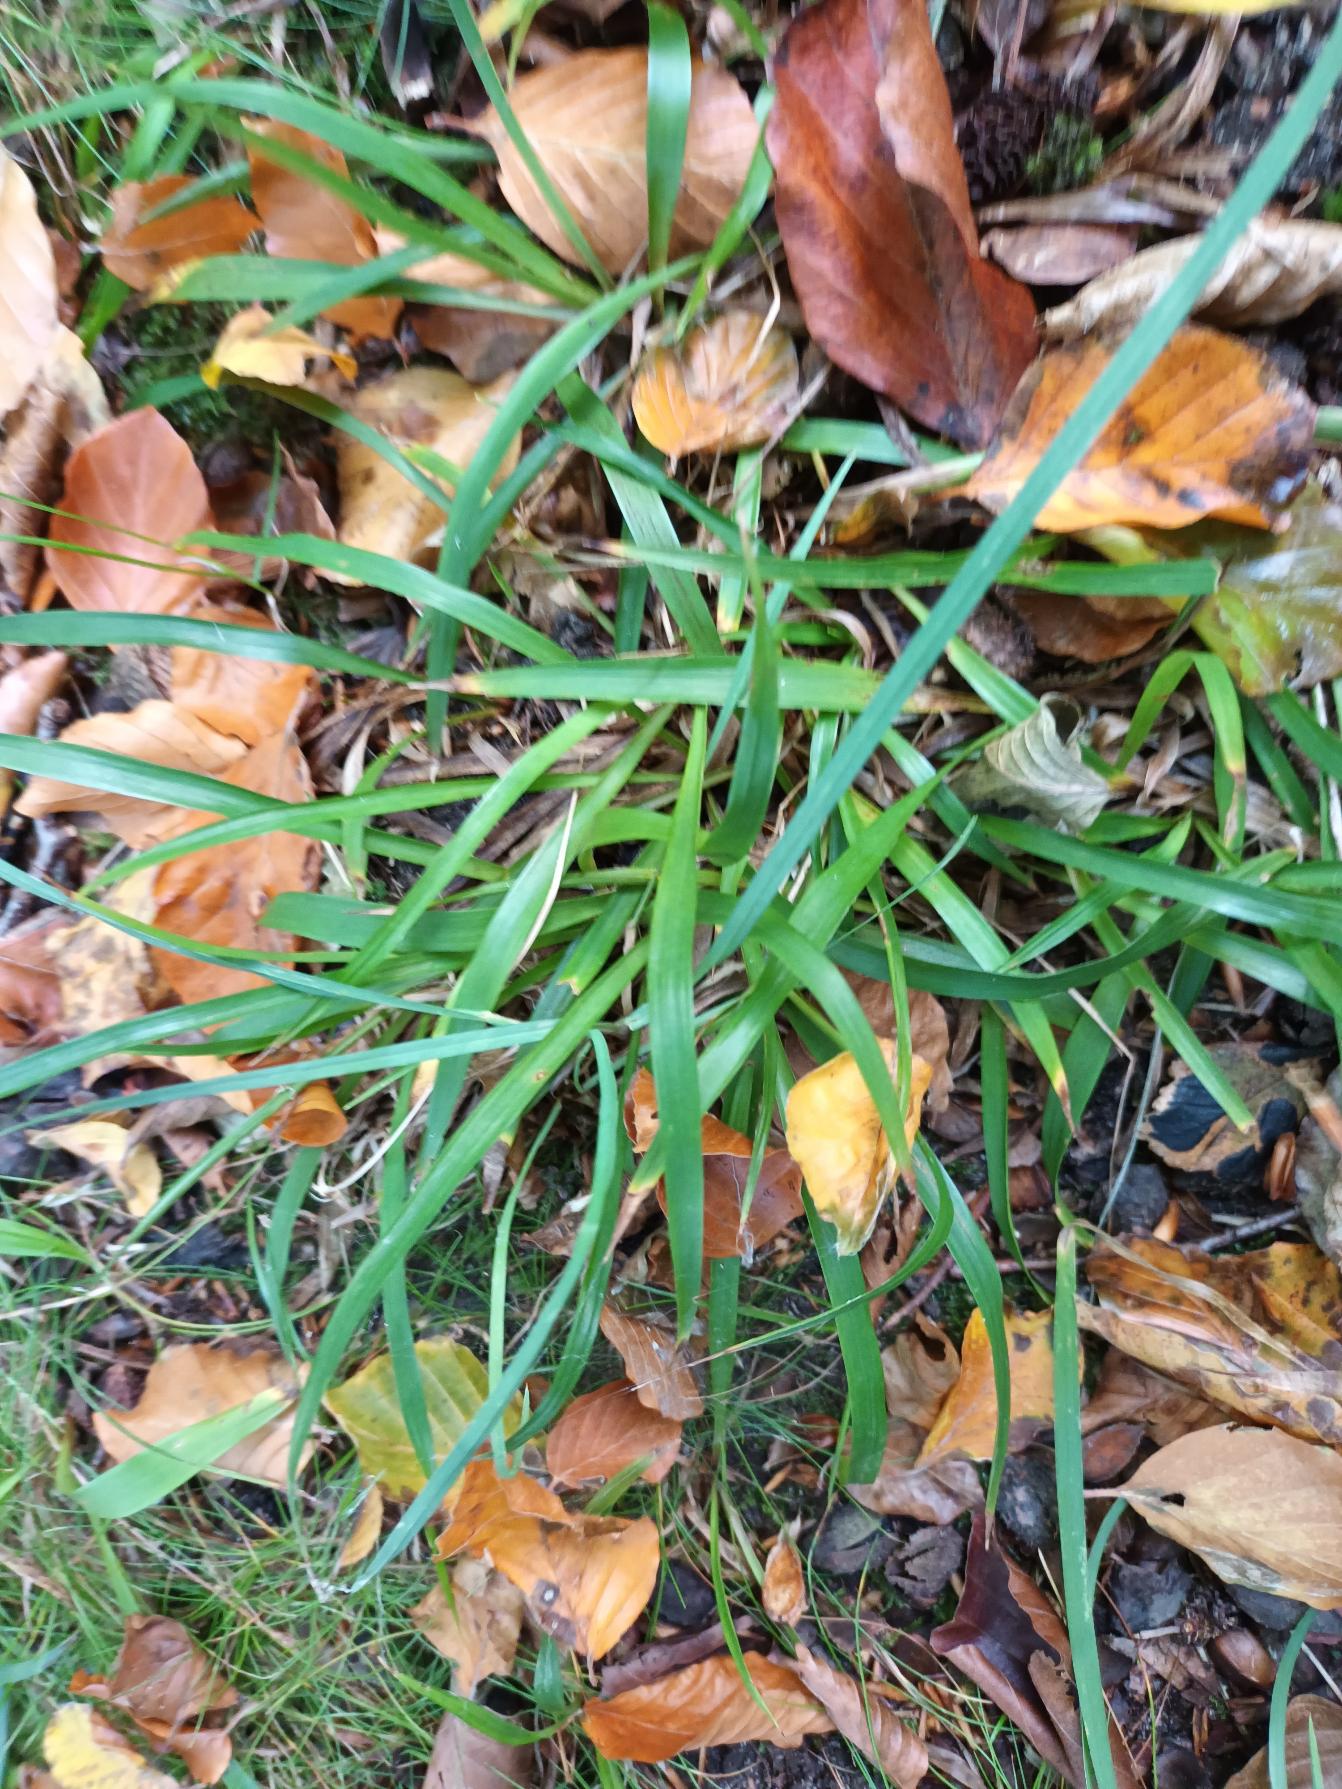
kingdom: Plantae
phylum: Tracheophyta
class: Liliopsida
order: Poales
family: Juncaceae
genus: Luzula
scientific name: Luzula pilosa
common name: Håret frytle
